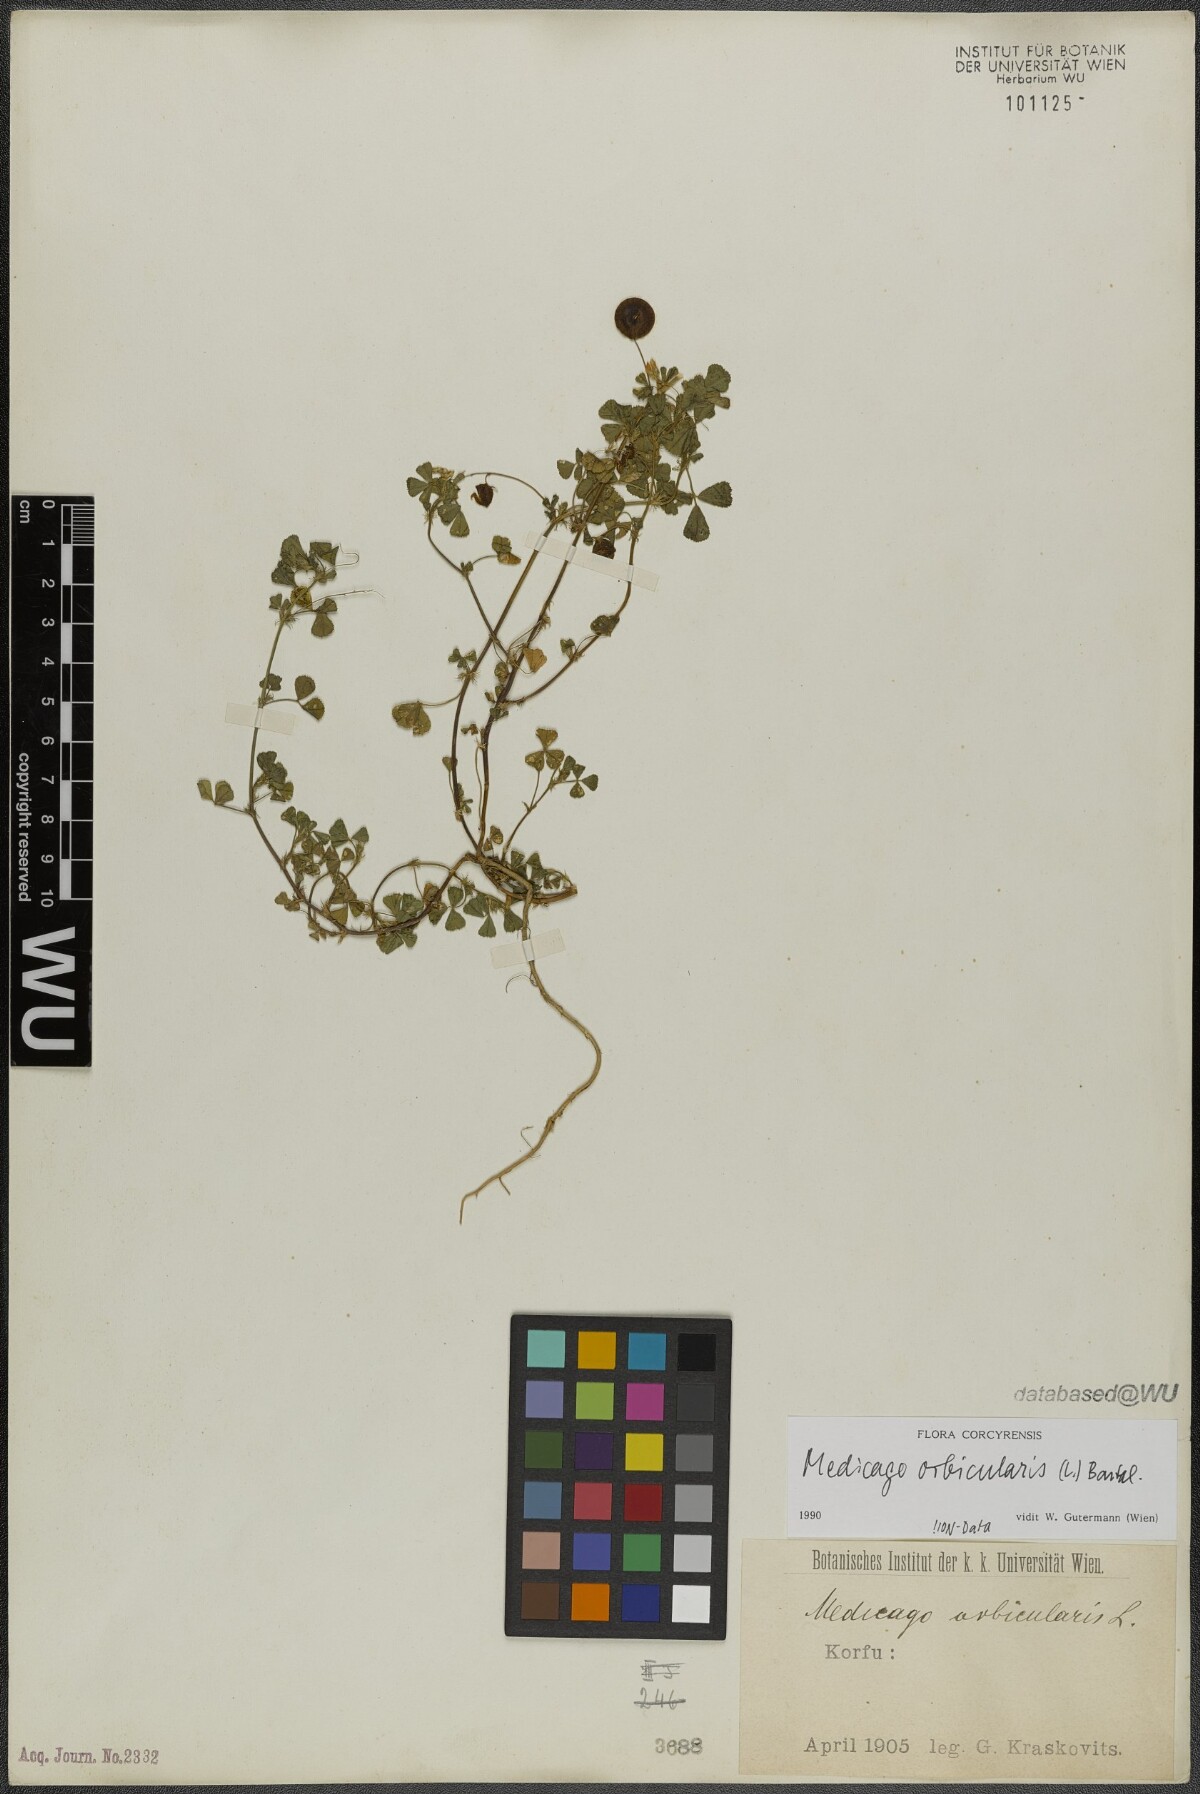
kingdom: Plantae
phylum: Tracheophyta
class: Magnoliopsida
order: Fabales
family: Fabaceae
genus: Medicago
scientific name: Medicago orbicularis
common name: Button medick
